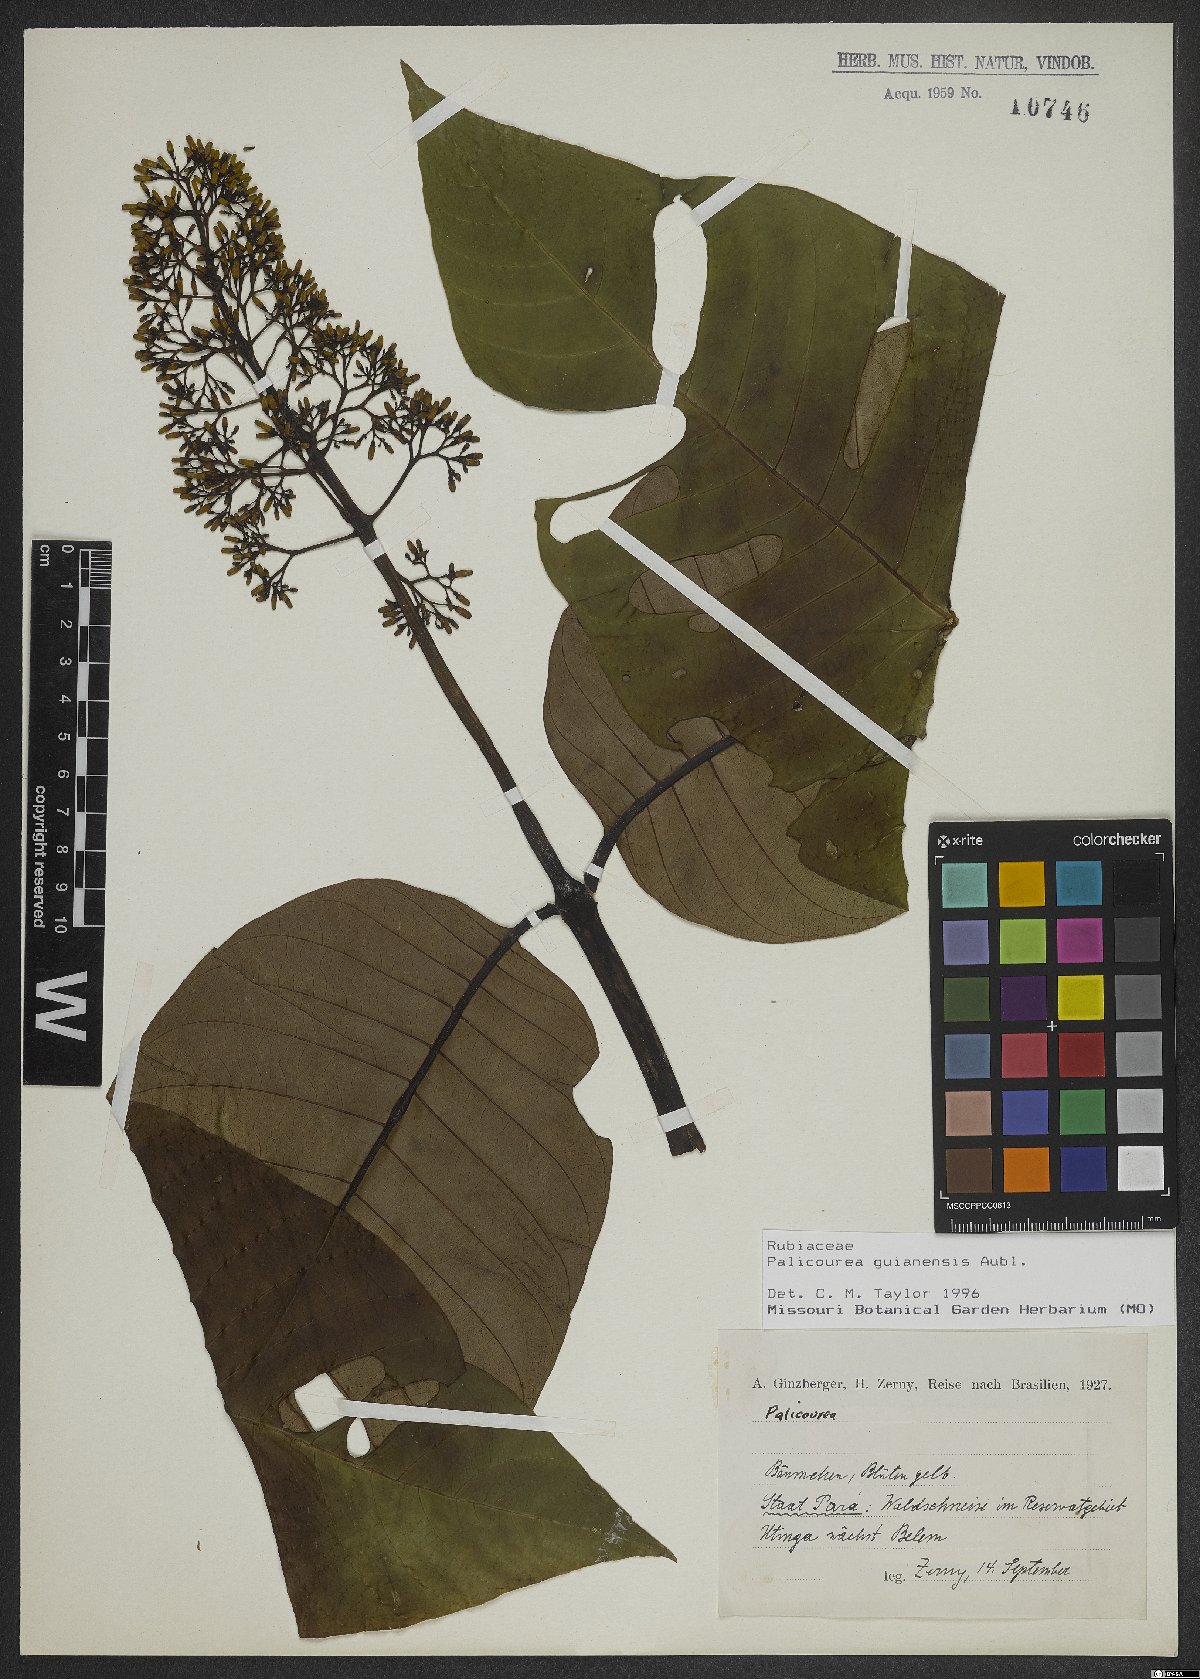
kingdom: Plantae
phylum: Tracheophyta
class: Magnoliopsida
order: Gentianales
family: Rubiaceae
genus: Palicourea
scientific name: Palicourea guianensis
